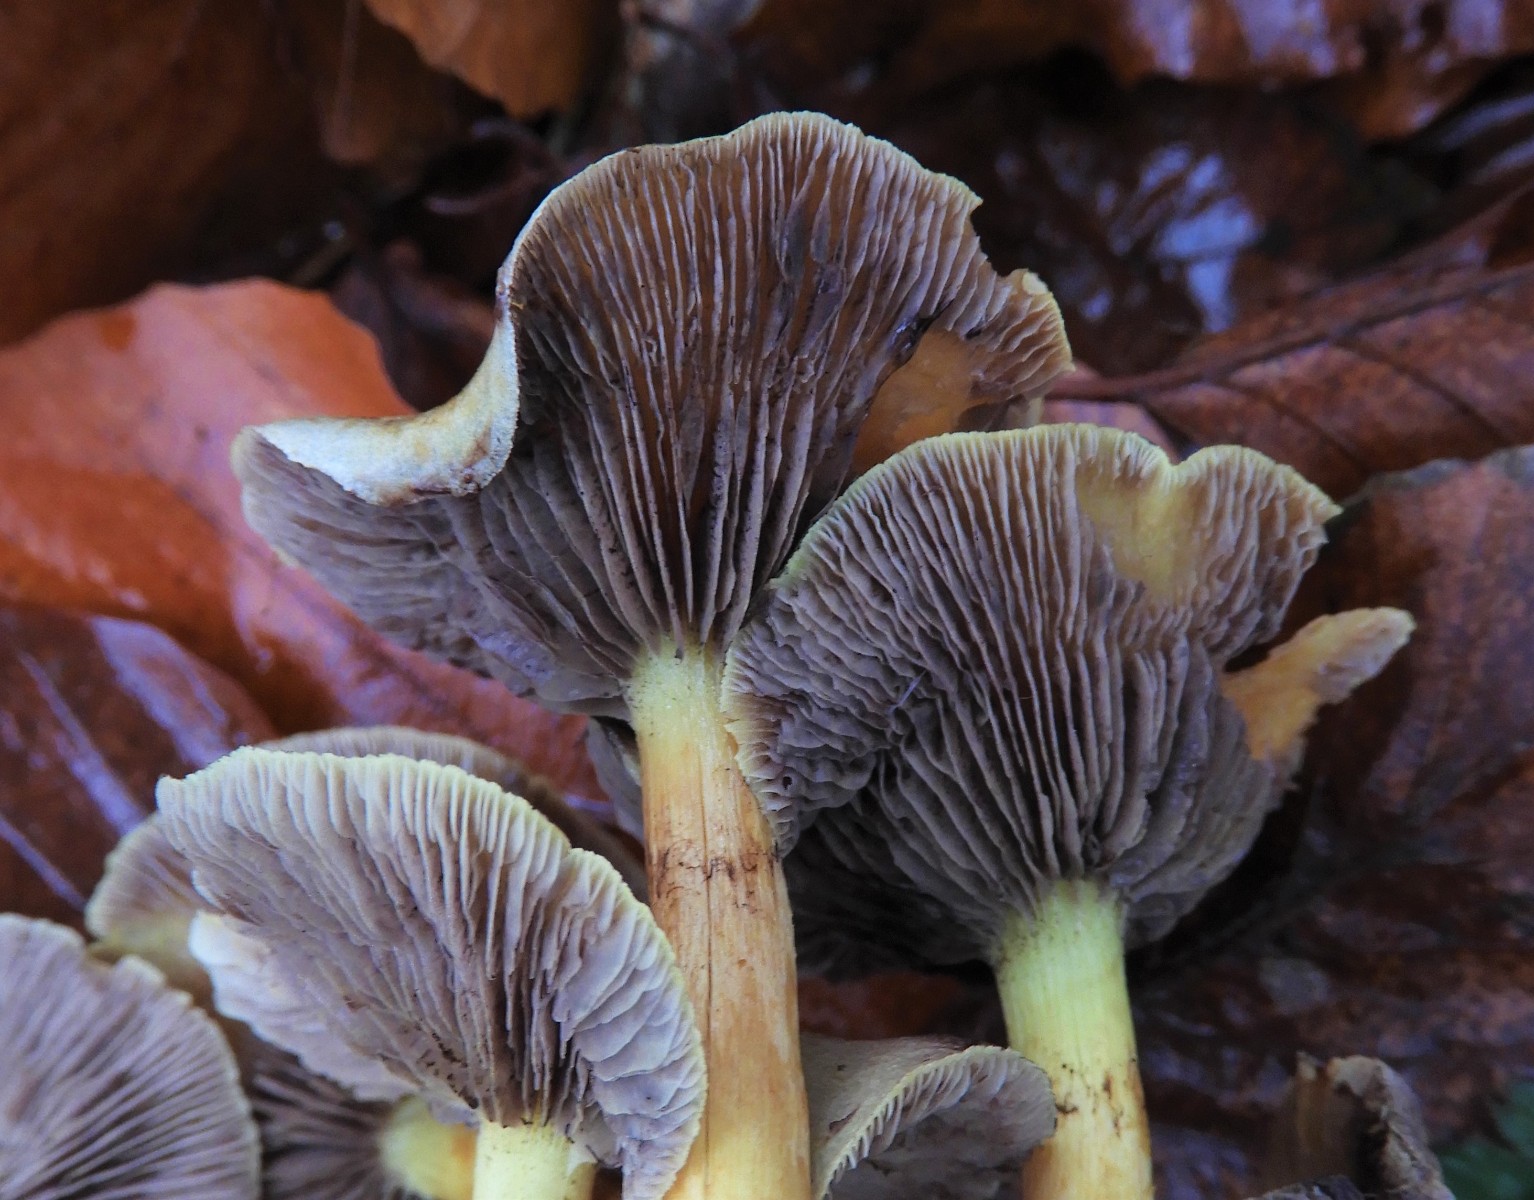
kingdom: Fungi
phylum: Basidiomycota
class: Agaricomycetes
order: Agaricales
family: Strophariaceae
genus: Hypholoma
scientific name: Hypholoma fasciculare
